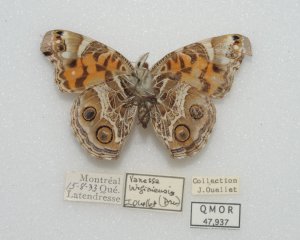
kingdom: Animalia
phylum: Arthropoda
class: Insecta
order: Lepidoptera
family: Nymphalidae
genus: Vanessa
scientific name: Vanessa virginiensis
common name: American Lady
